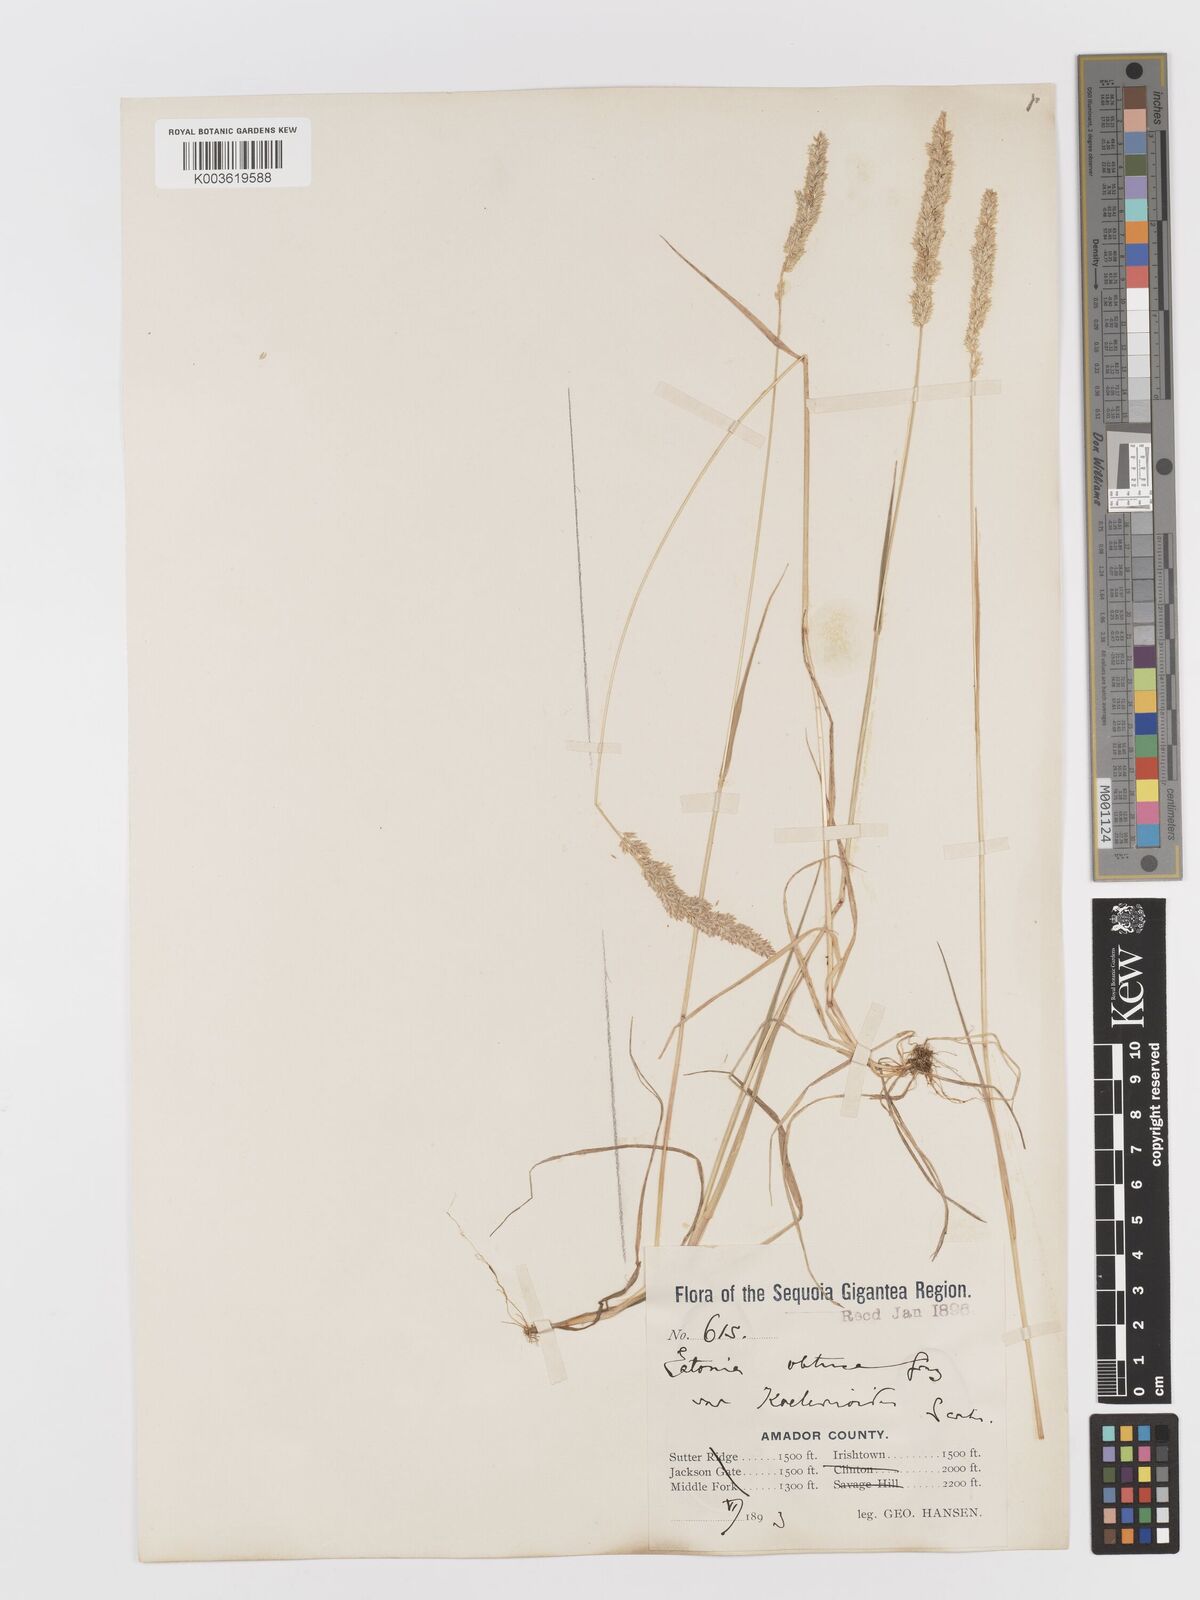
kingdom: Plantae
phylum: Tracheophyta
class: Liliopsida
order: Poales
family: Poaceae
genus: Sphenopholis
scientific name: Sphenopholis obtusata
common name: Prairie grass
